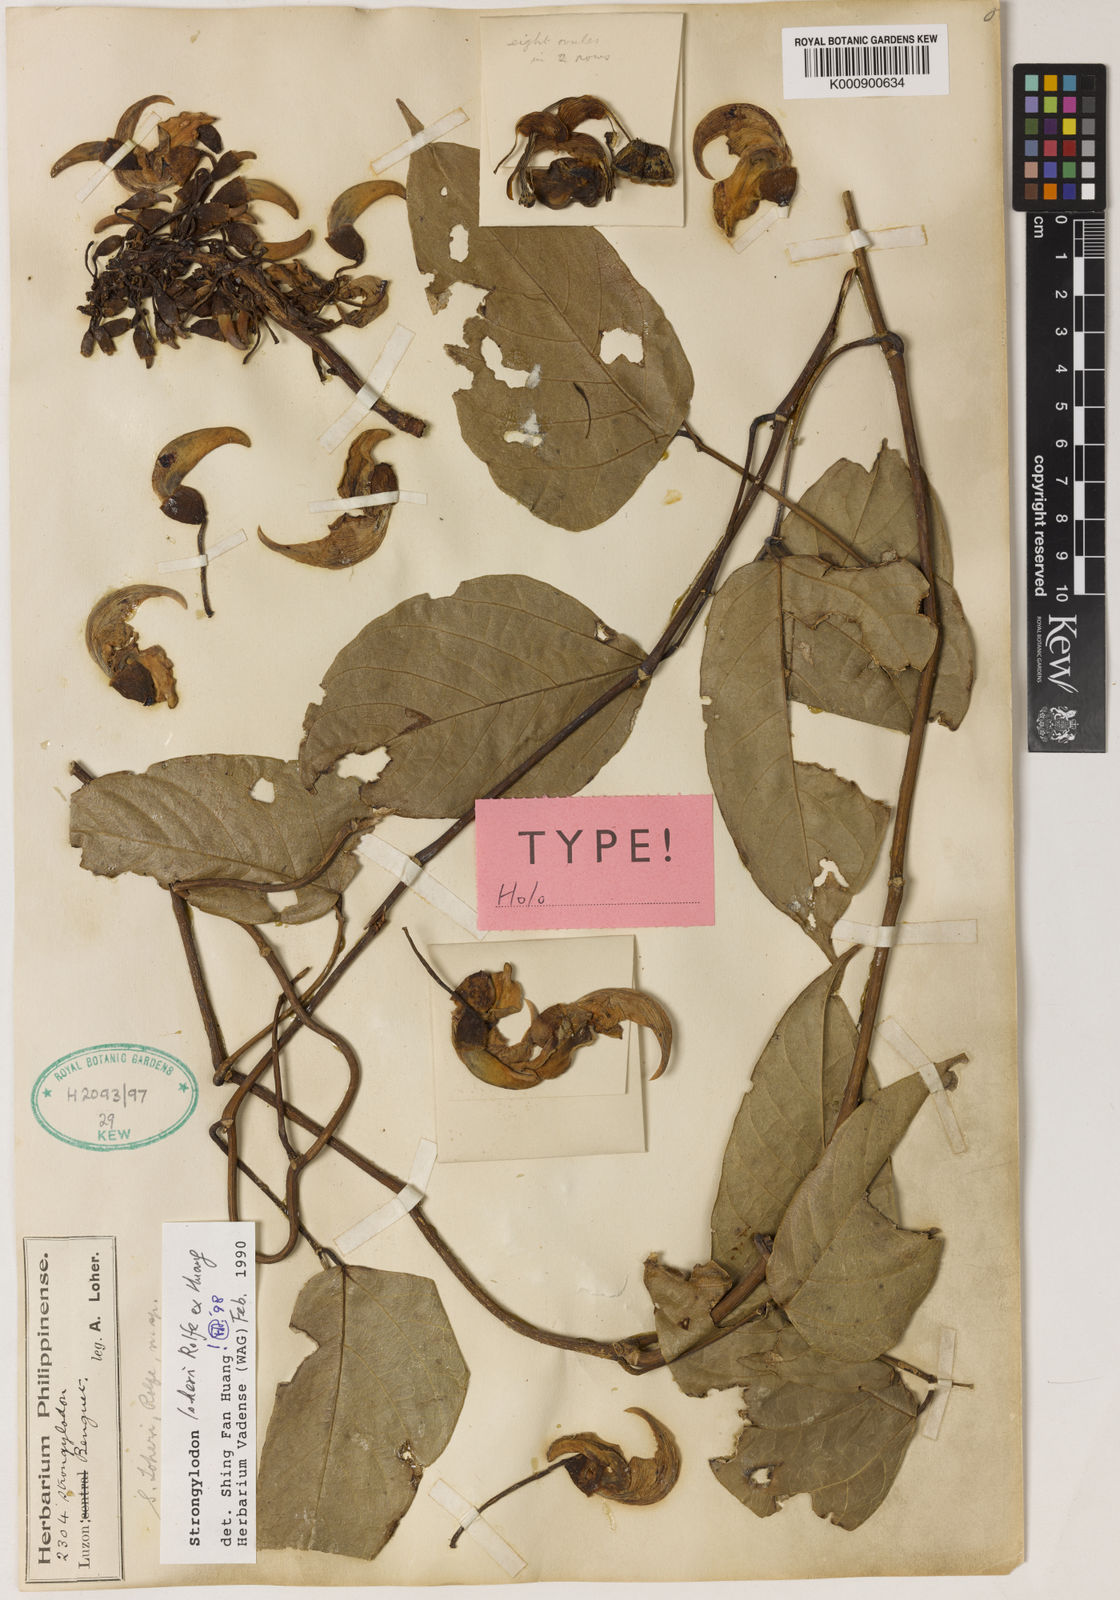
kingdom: Plantae
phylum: Tracheophyta
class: Magnoliopsida
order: Fabales
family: Fabaceae
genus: Strongylodon
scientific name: Strongylodon loheri
